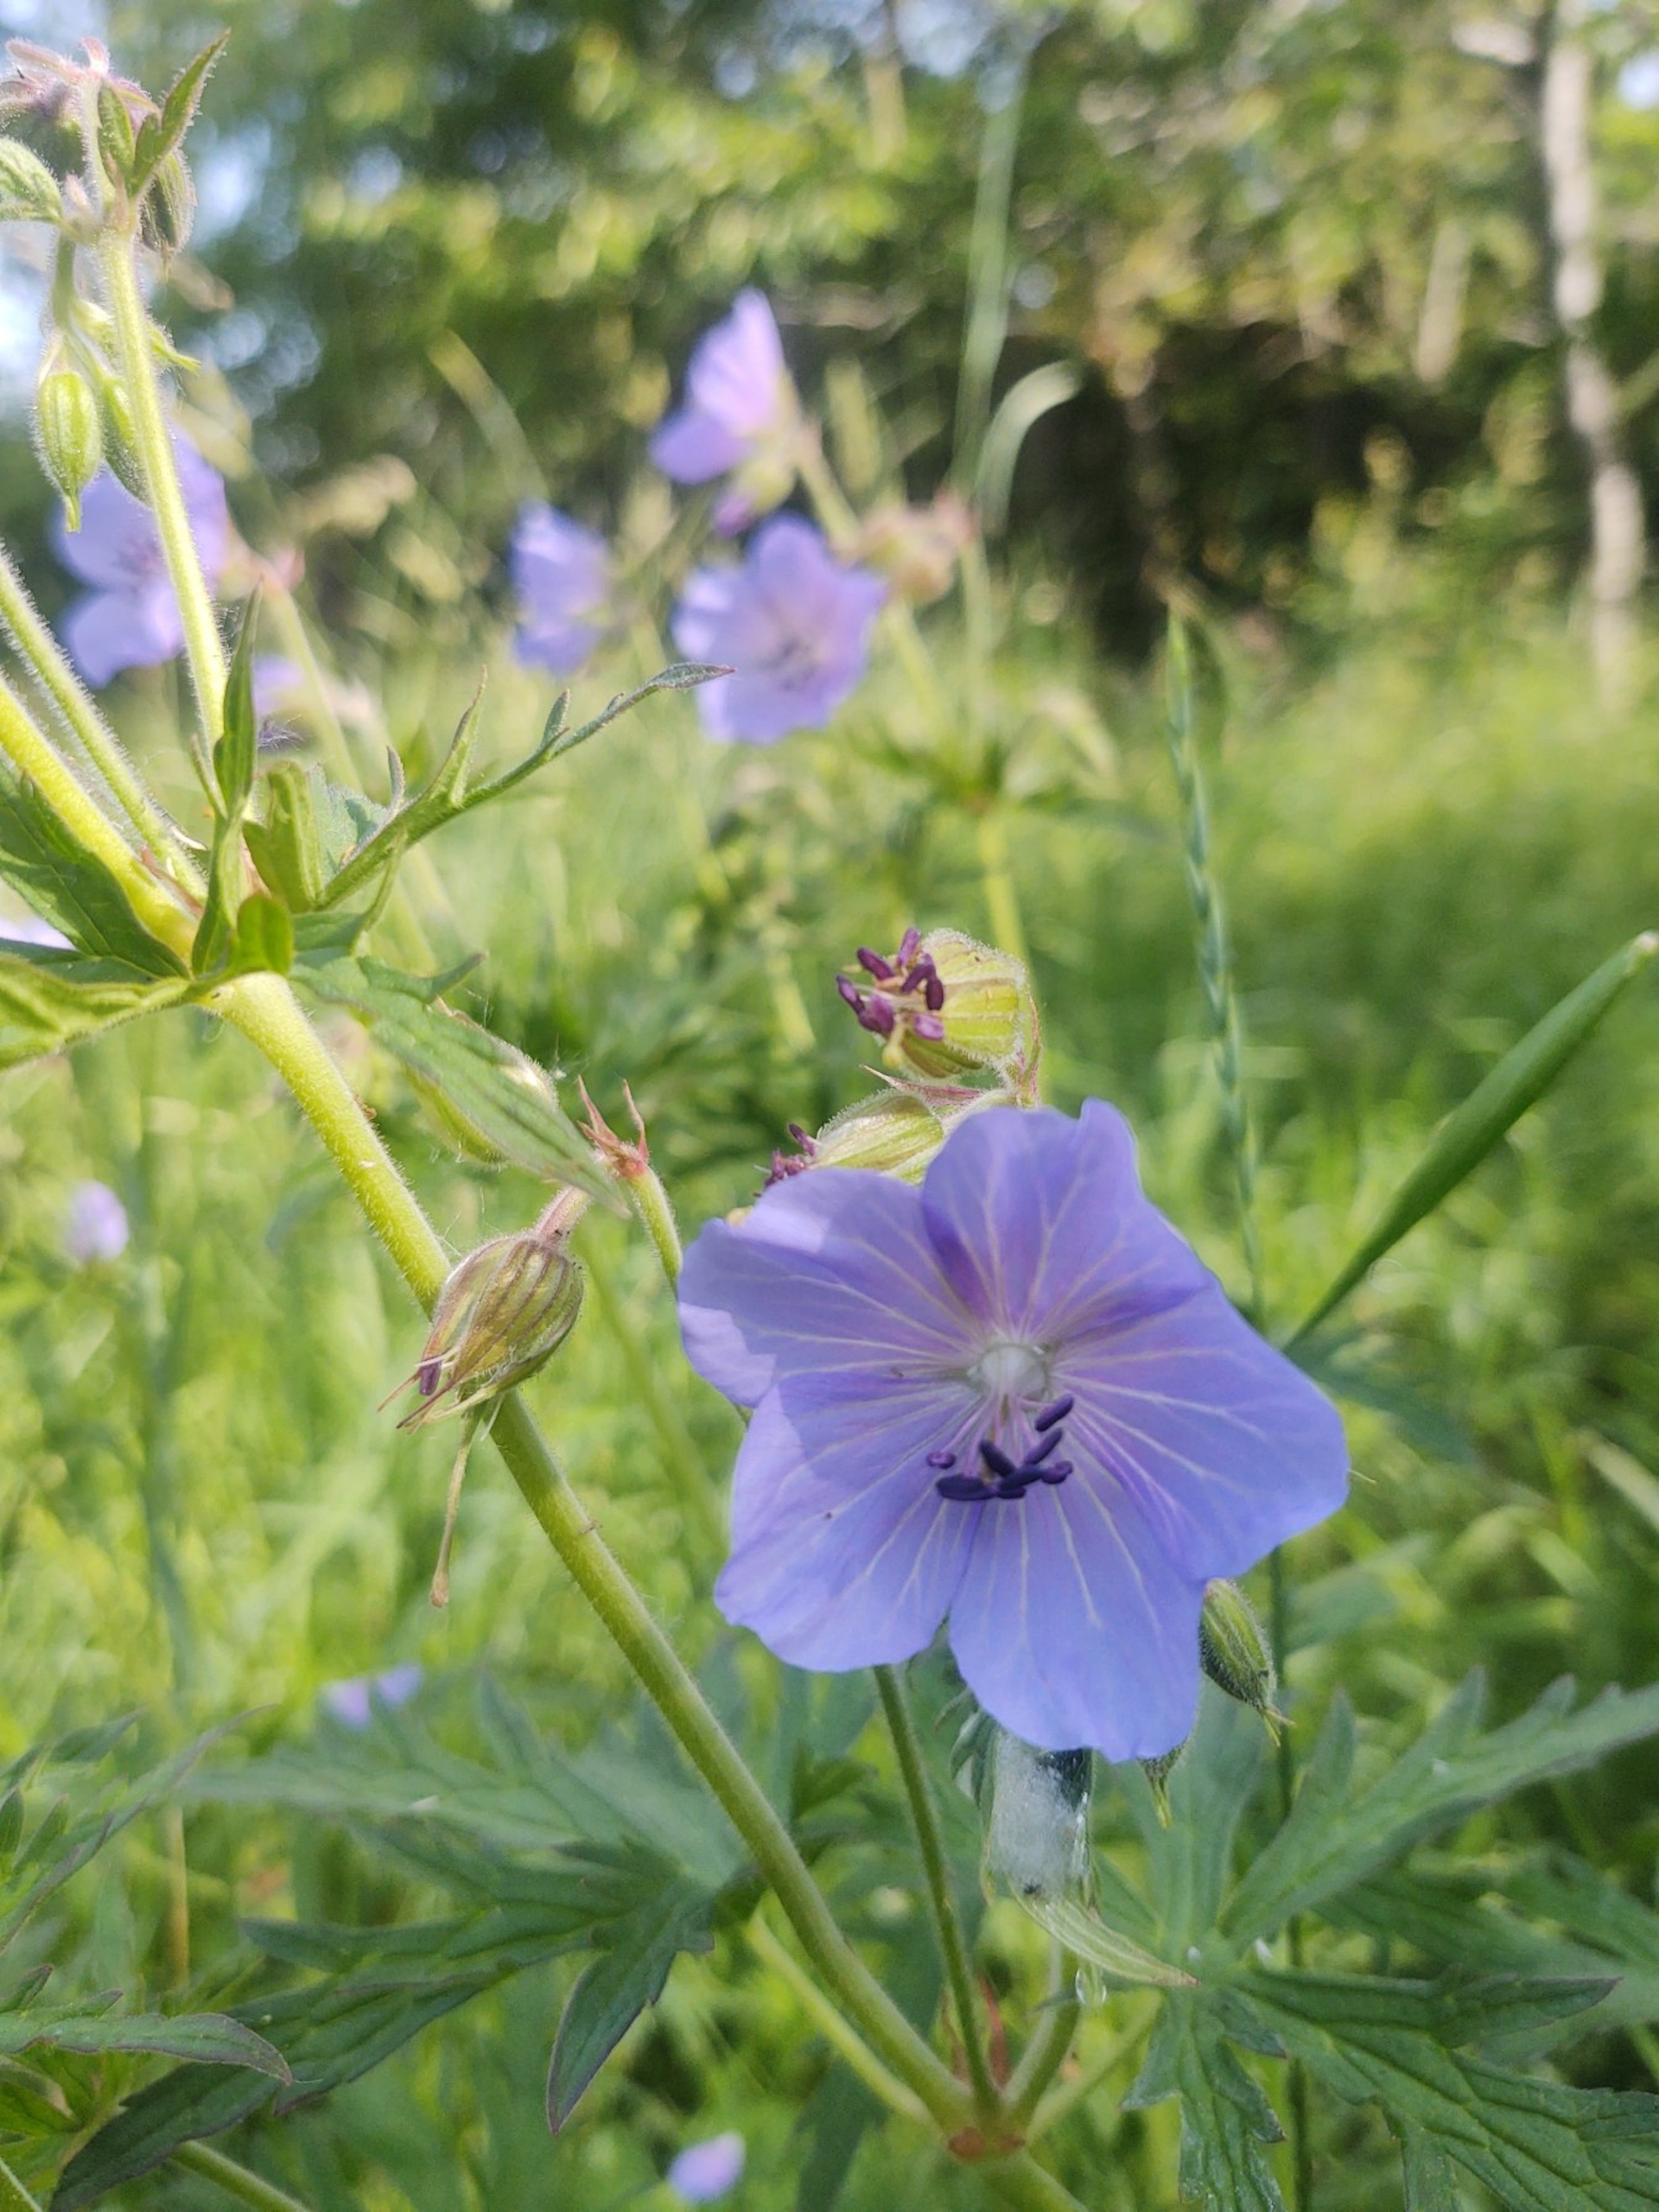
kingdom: Plantae
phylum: Tracheophyta
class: Magnoliopsida
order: Geraniales
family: Geraniaceae
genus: Geranium
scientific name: Geranium pratense
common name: Eng-storkenæb
